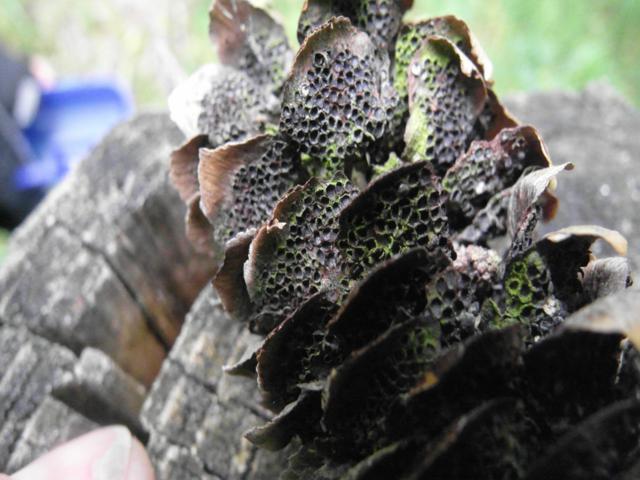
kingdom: Fungi
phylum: Basidiomycota
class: Pucciniomycetes
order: Pucciniales
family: Pucciniastraceae
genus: Thekopsora
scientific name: Thekopsora areolata
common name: grankogle-nålerust
